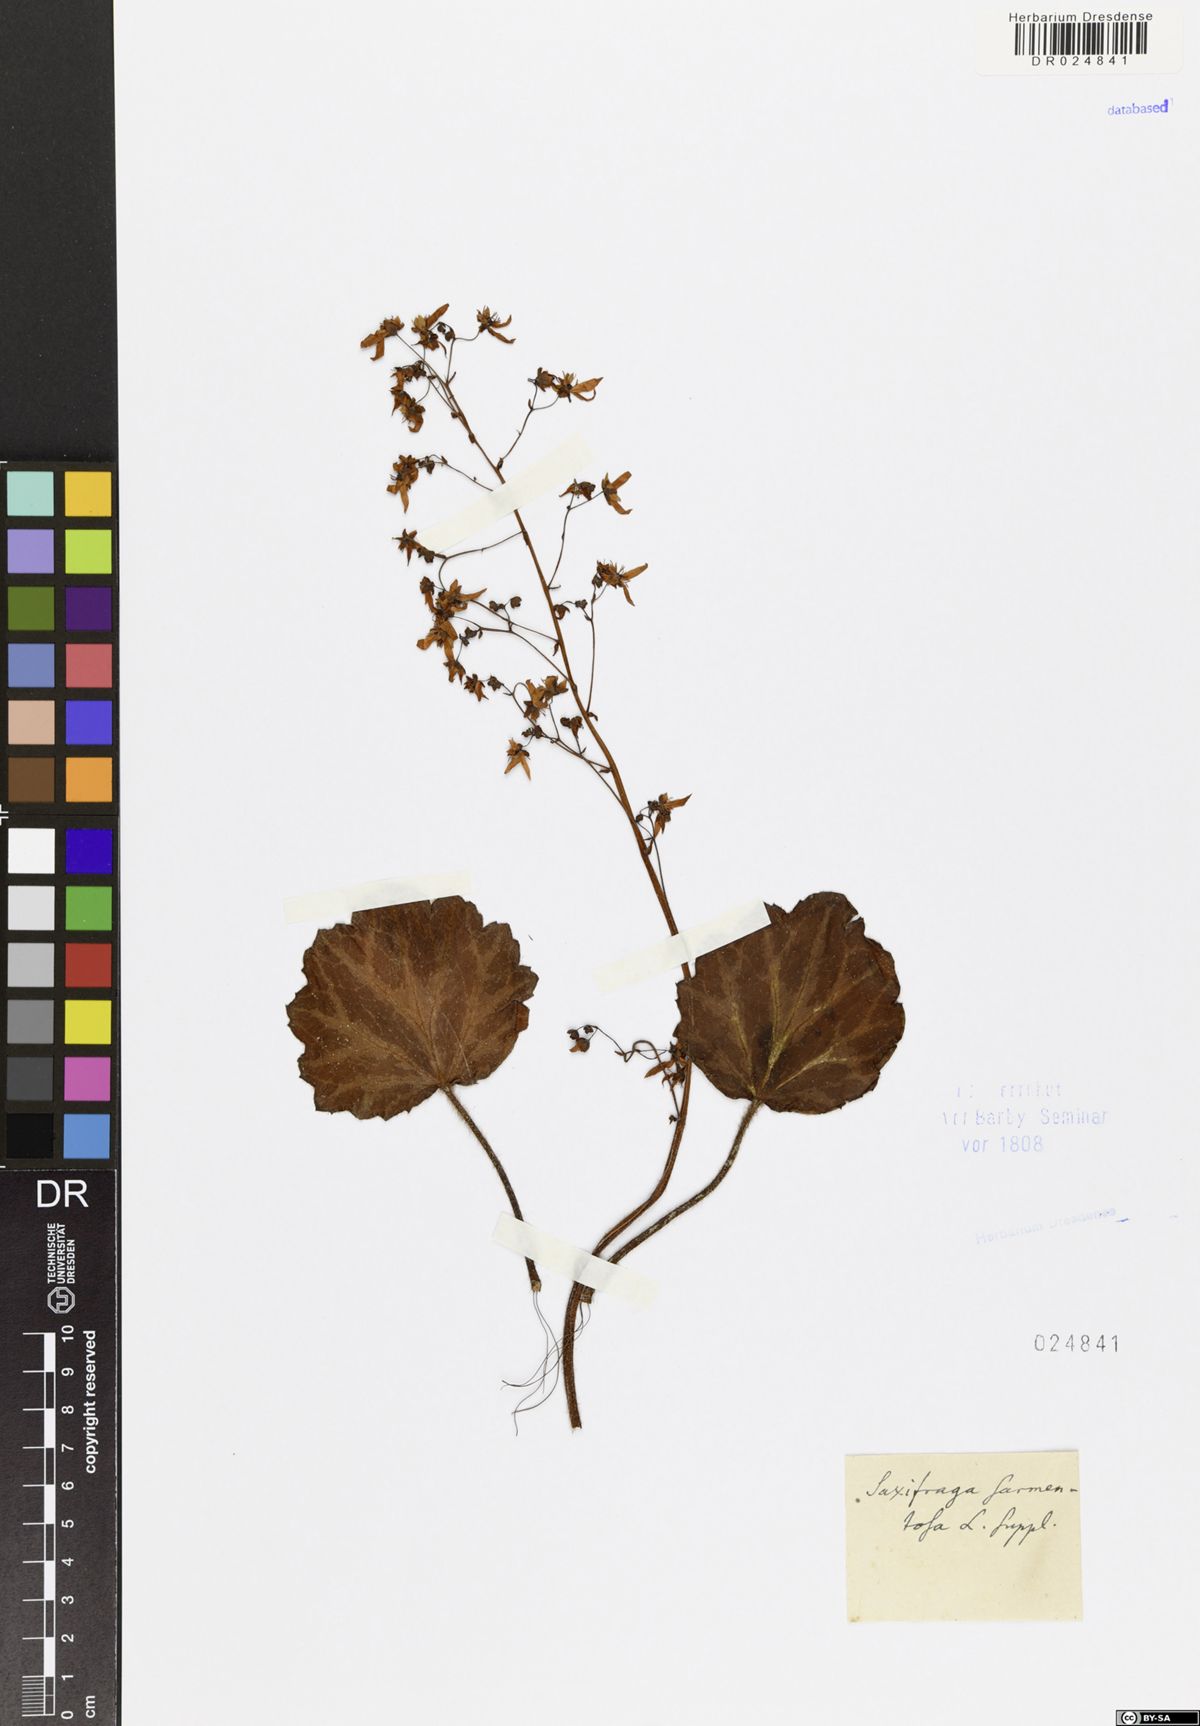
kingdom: Plantae
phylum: Tracheophyta
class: Magnoliopsida
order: Saxifragales
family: Saxifragaceae
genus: Saxifraga
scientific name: Saxifraga stolonifera
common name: Creeping saxifrage
